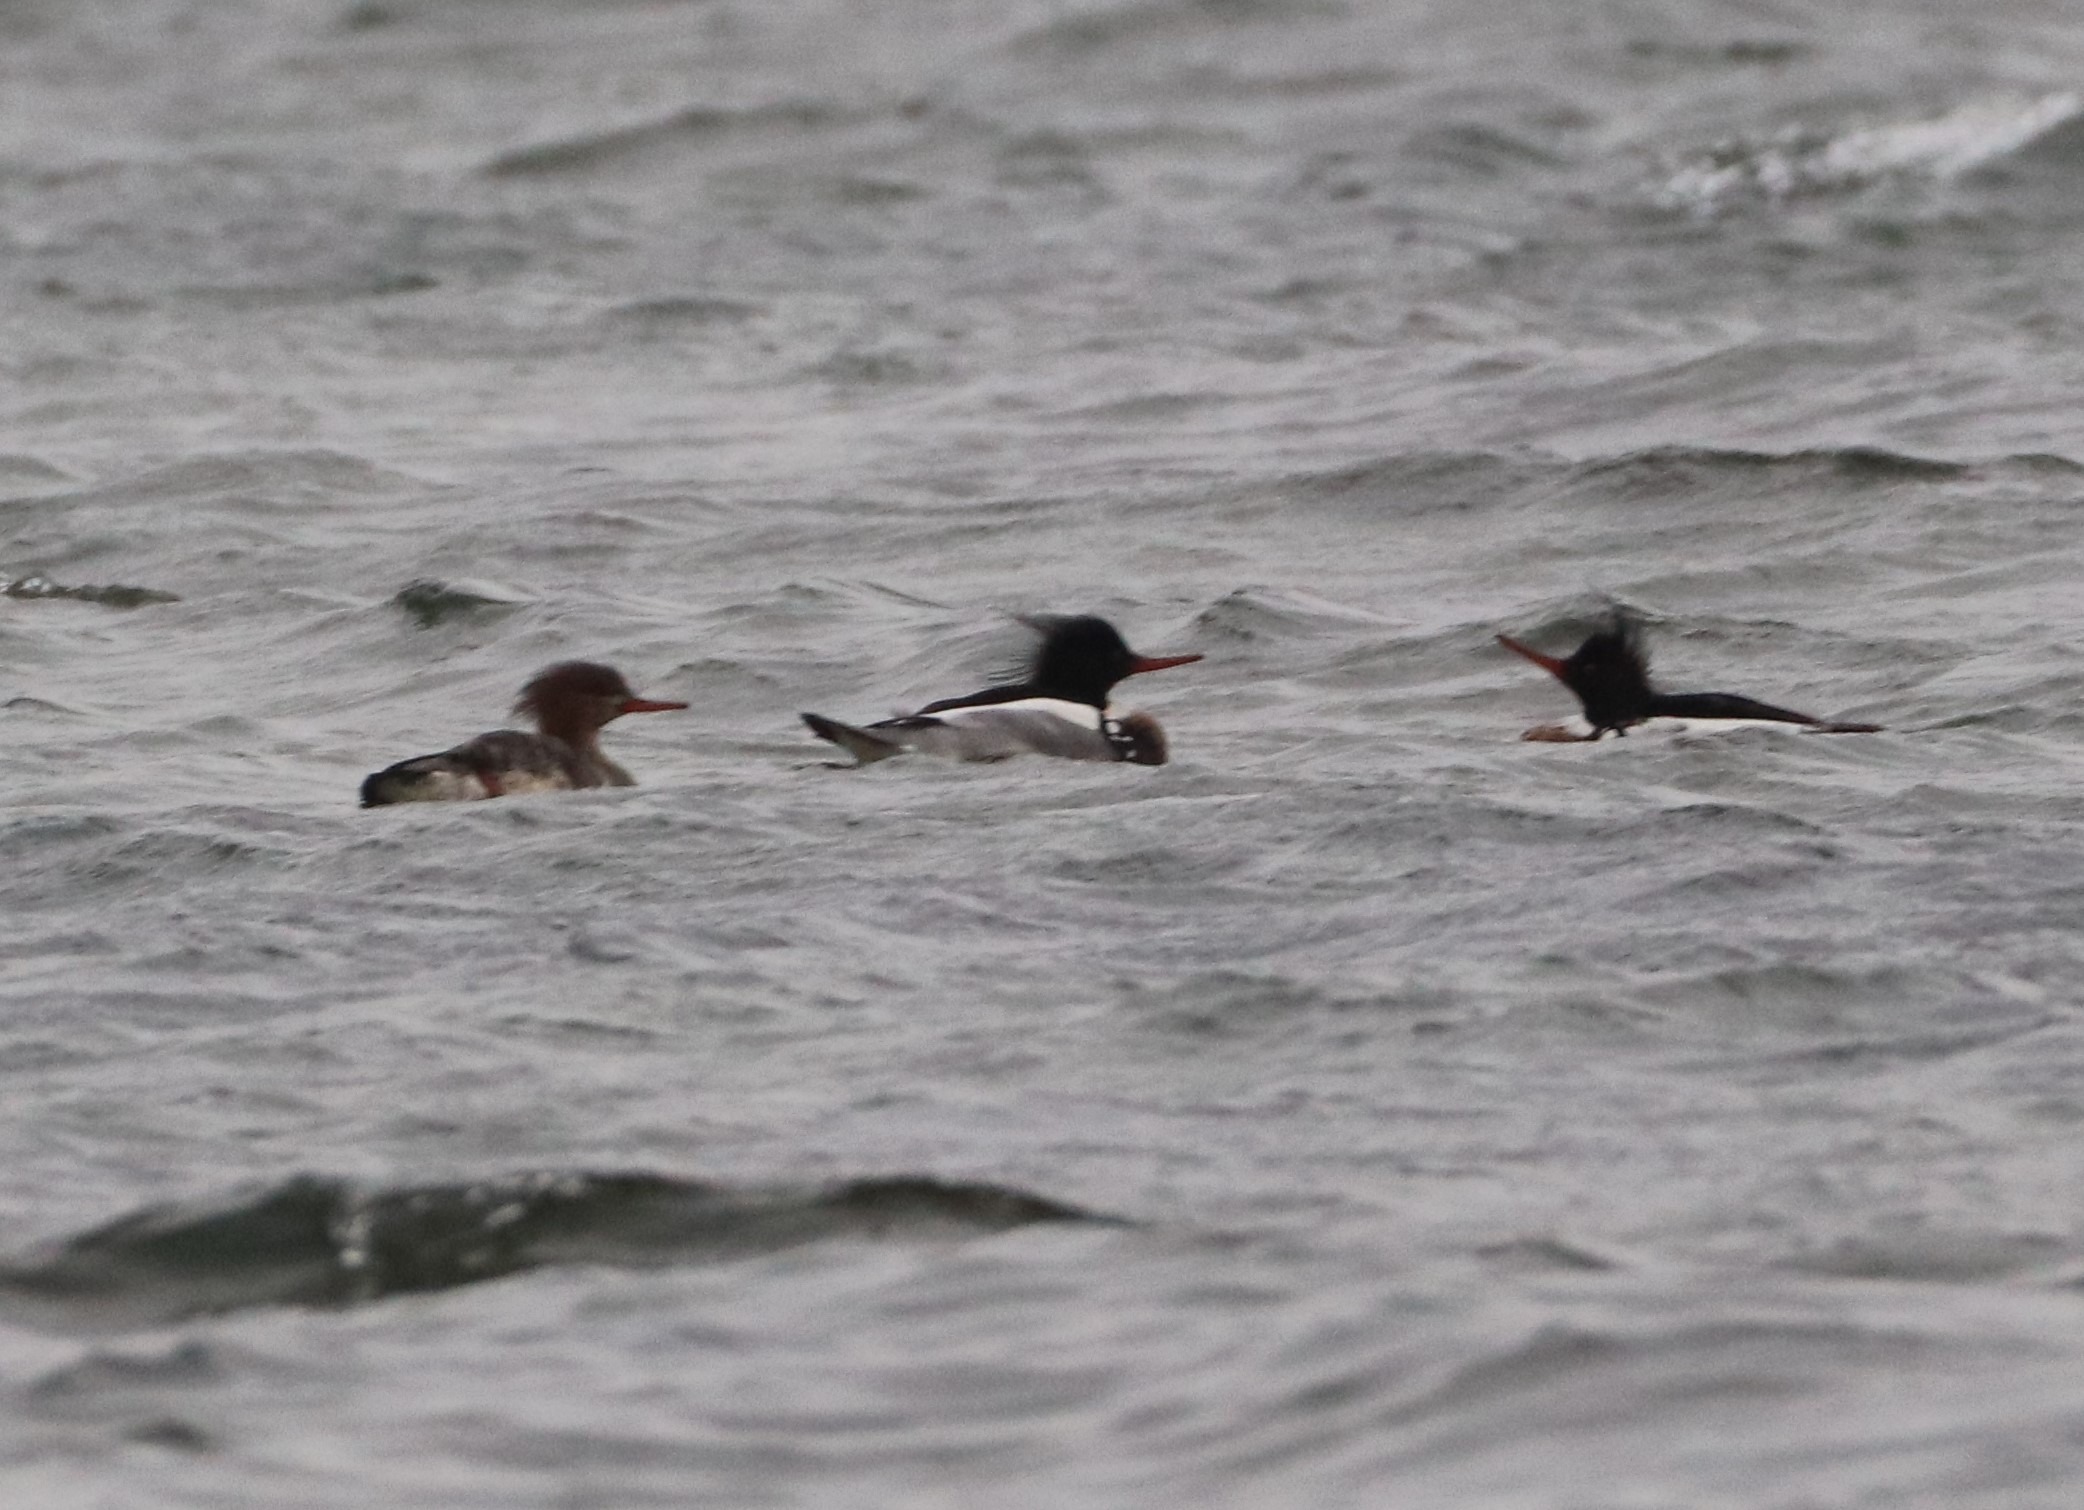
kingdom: Animalia
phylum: Chordata
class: Aves
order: Anseriformes
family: Anatidae
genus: Mergus
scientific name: Mergus serrator
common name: Toppet skallesluger
